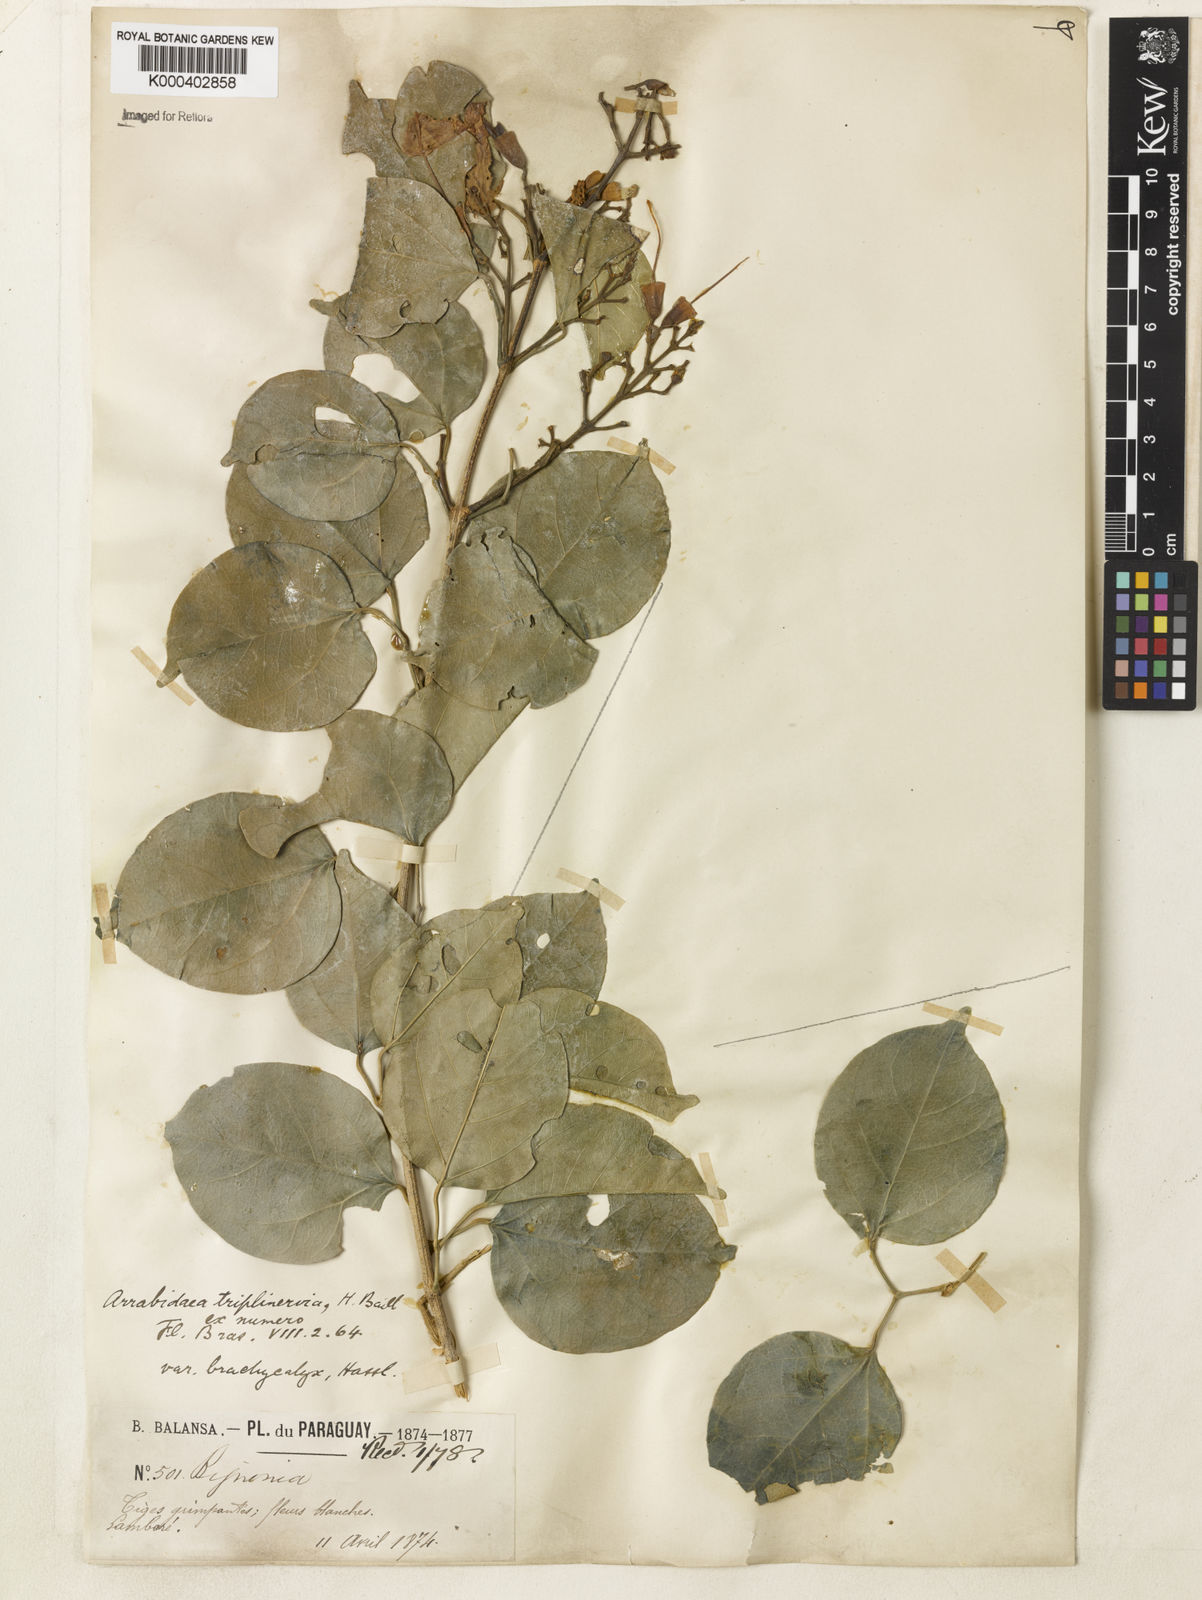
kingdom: Plantae
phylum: Tracheophyta
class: Magnoliopsida
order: Lamiales
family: Bignoniaceae
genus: Fridericia
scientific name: Fridericia triplinervia
